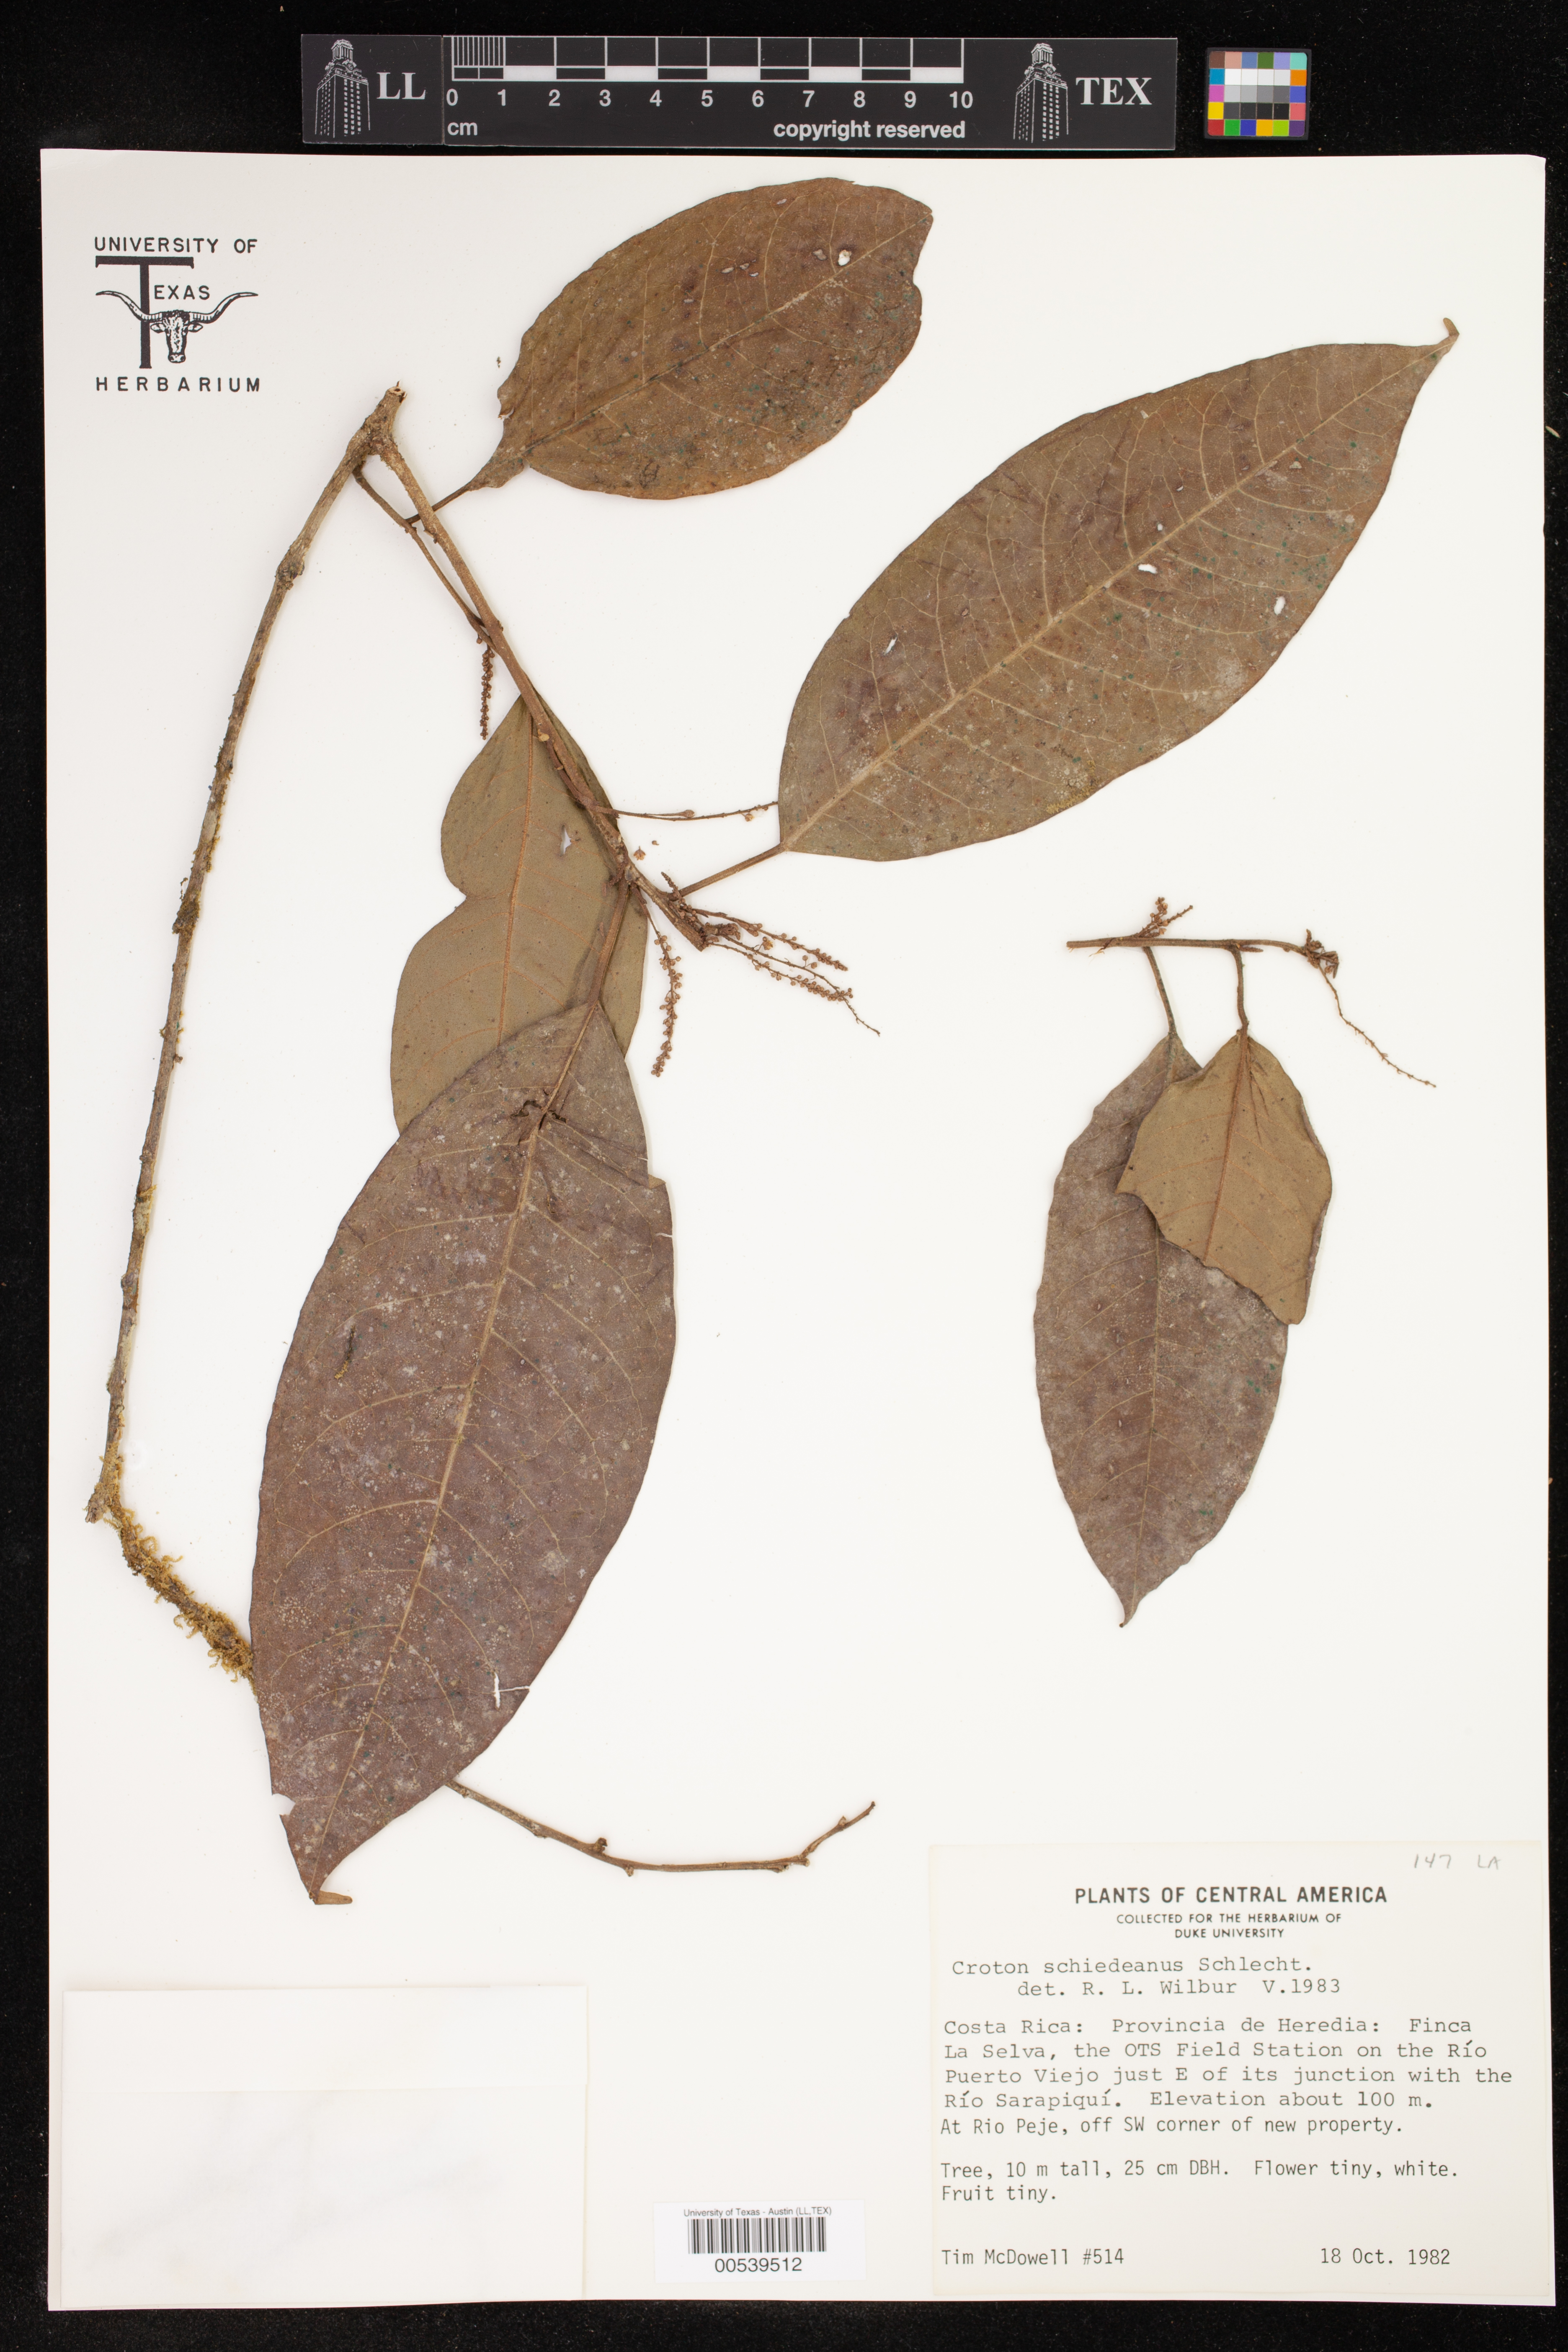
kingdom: Plantae
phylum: Tracheophyta
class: Magnoliopsida
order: Malpighiales
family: Euphorbiaceae
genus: Croton
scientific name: Croton schiedeanus
